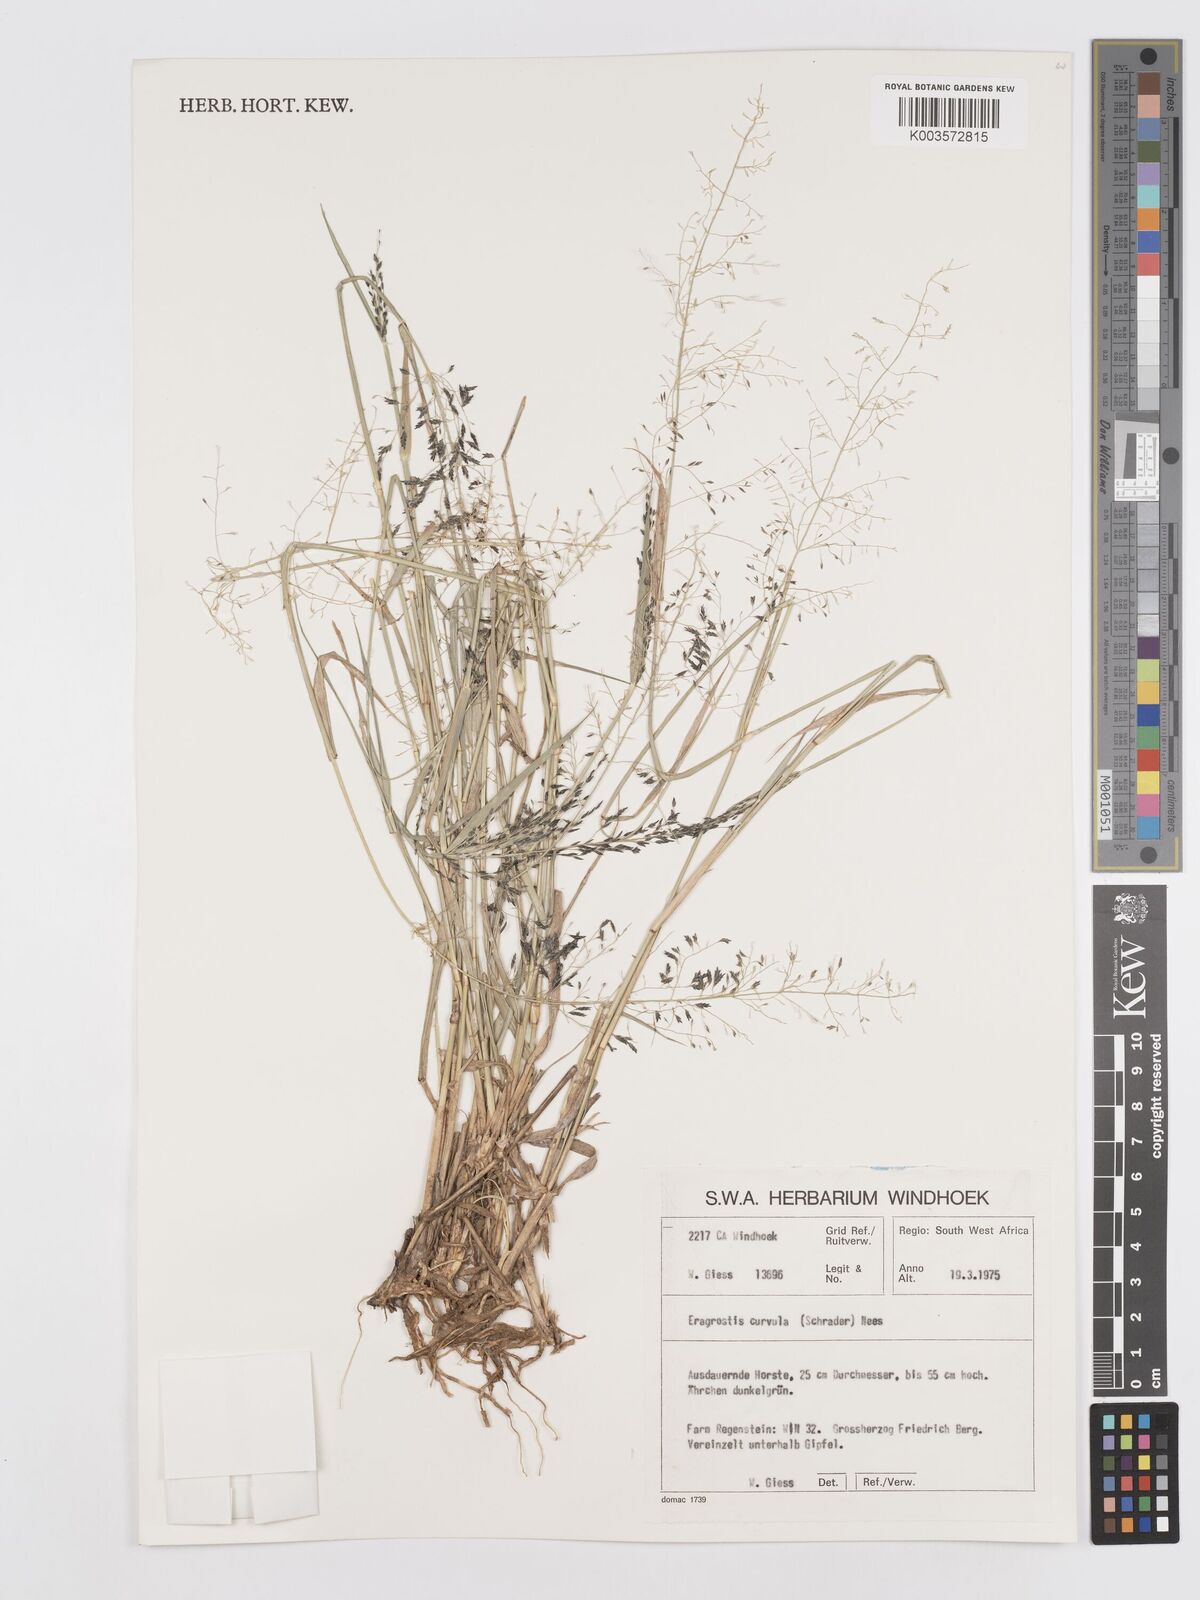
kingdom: Plantae
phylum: Tracheophyta
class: Liliopsida
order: Poales
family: Poaceae
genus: Eragrostis
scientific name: Eragrostis curvula
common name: African love-grass
